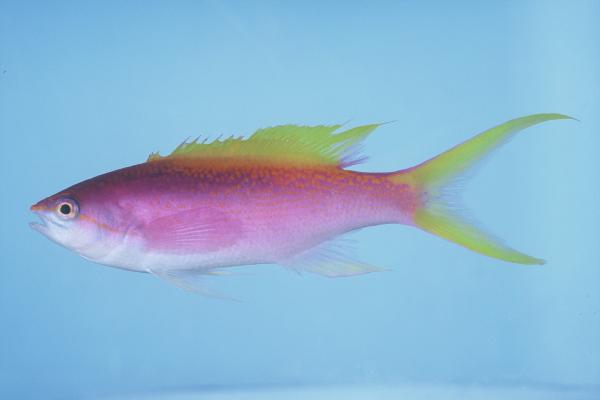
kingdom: Animalia
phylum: Chordata
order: Perciformes
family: Serranidae
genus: Pseudanthias
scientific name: Pseudanthias evansi
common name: Goldback anthias
